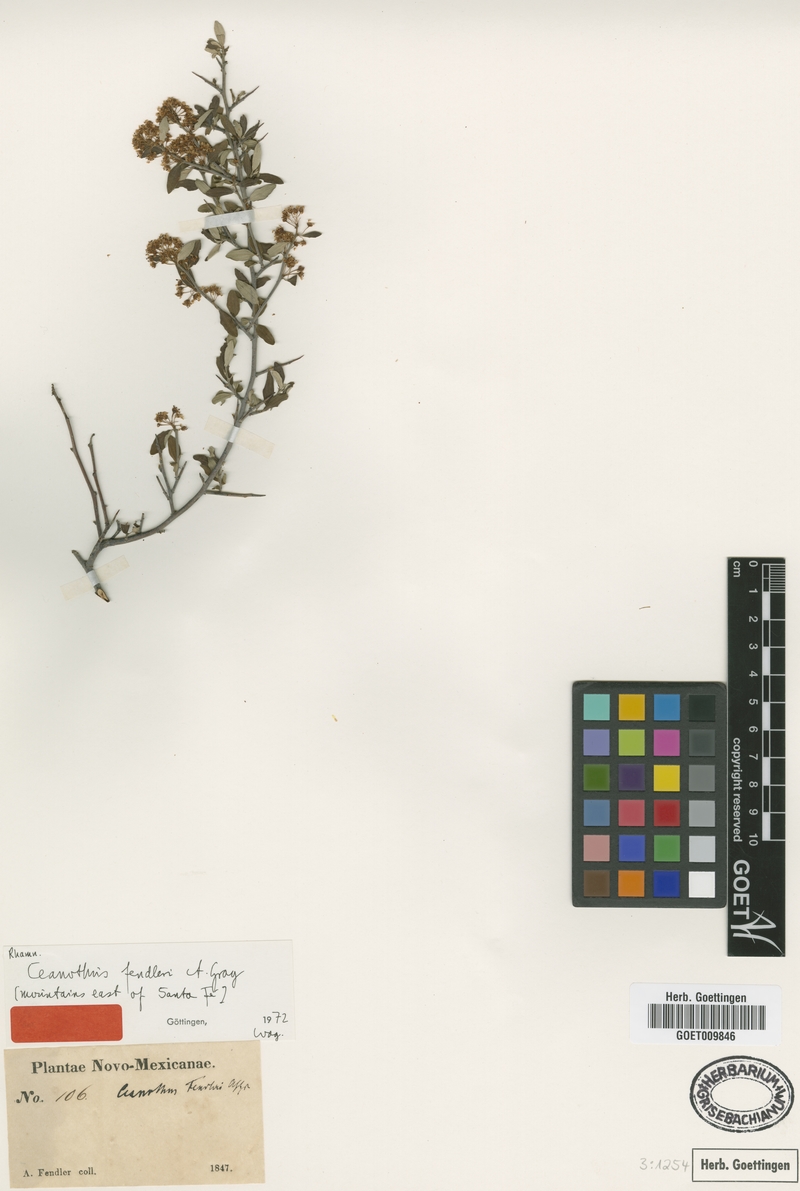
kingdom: Plantae
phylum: Tracheophyta
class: Magnoliopsida
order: Rosales
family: Rhamnaceae
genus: Ceanothus
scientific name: Ceanothus fendleri
